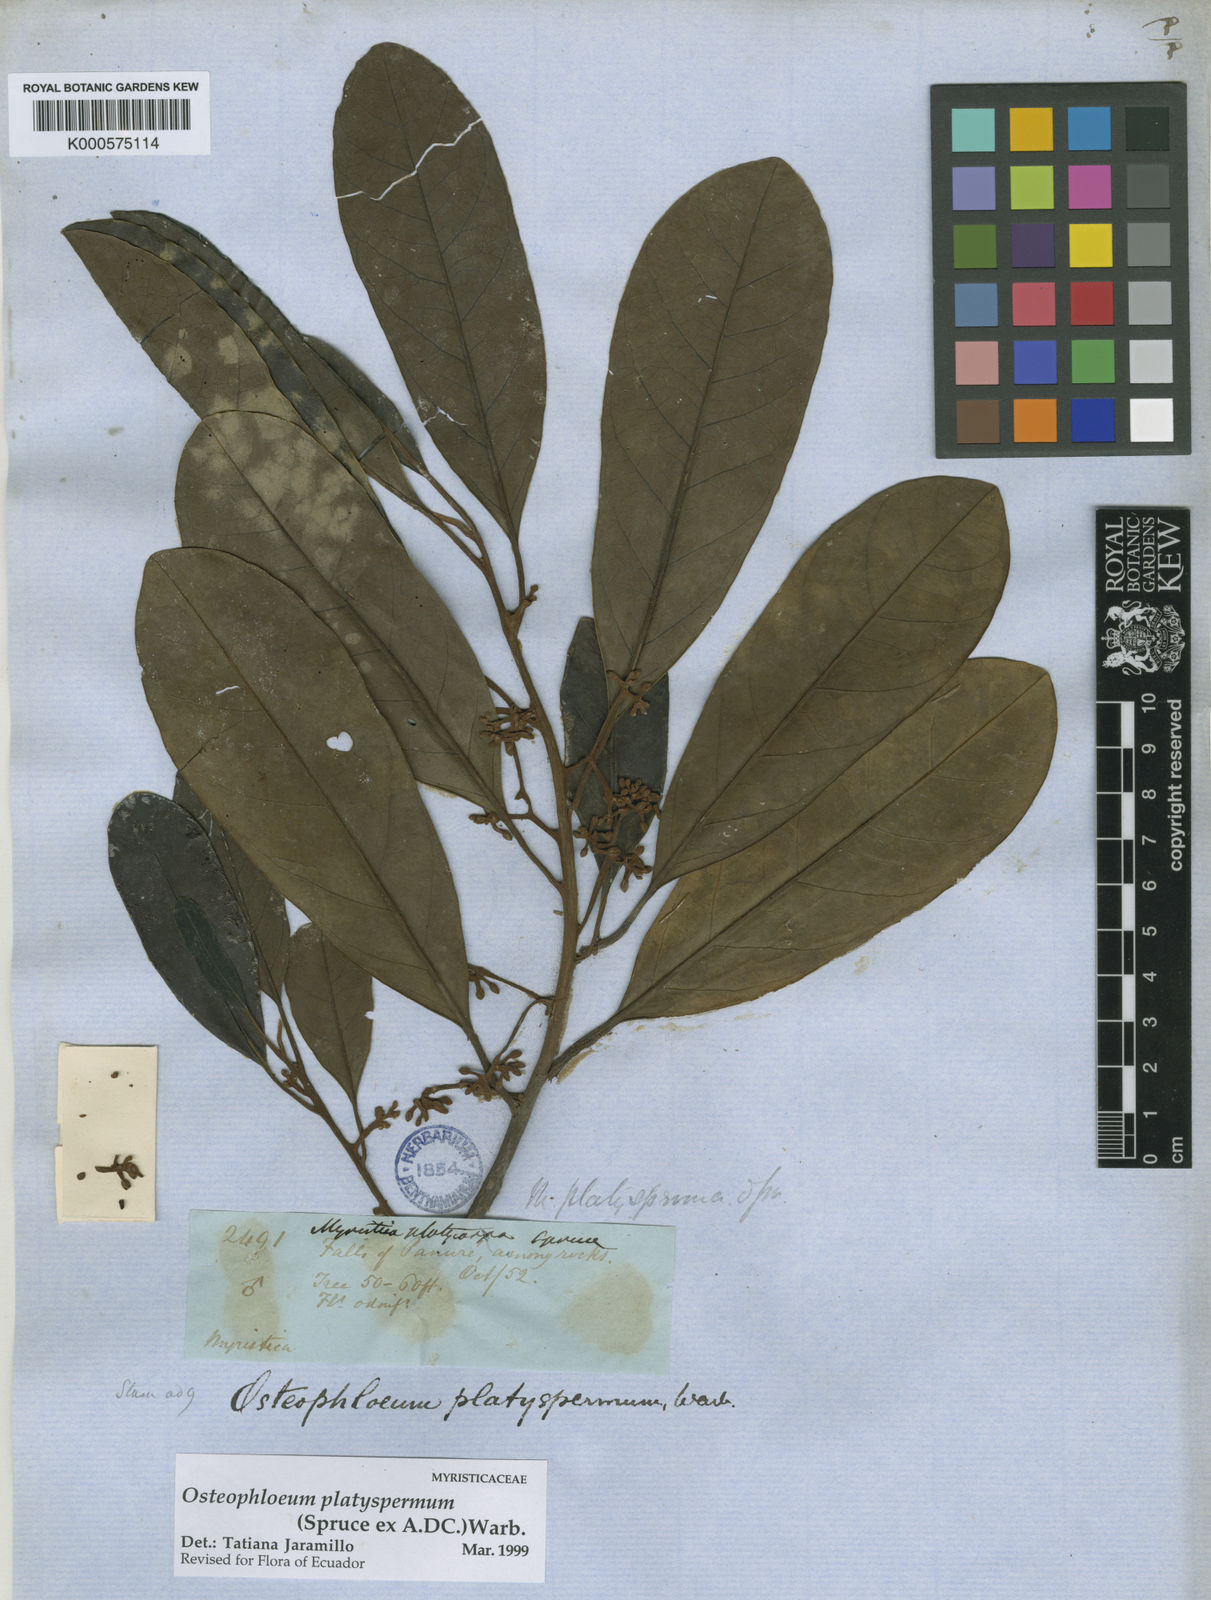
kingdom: Plantae
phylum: Tracheophyta
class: Magnoliopsida
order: Magnoliales
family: Myristicaceae
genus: Osteophloeum
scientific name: Osteophloeum platyspermum
